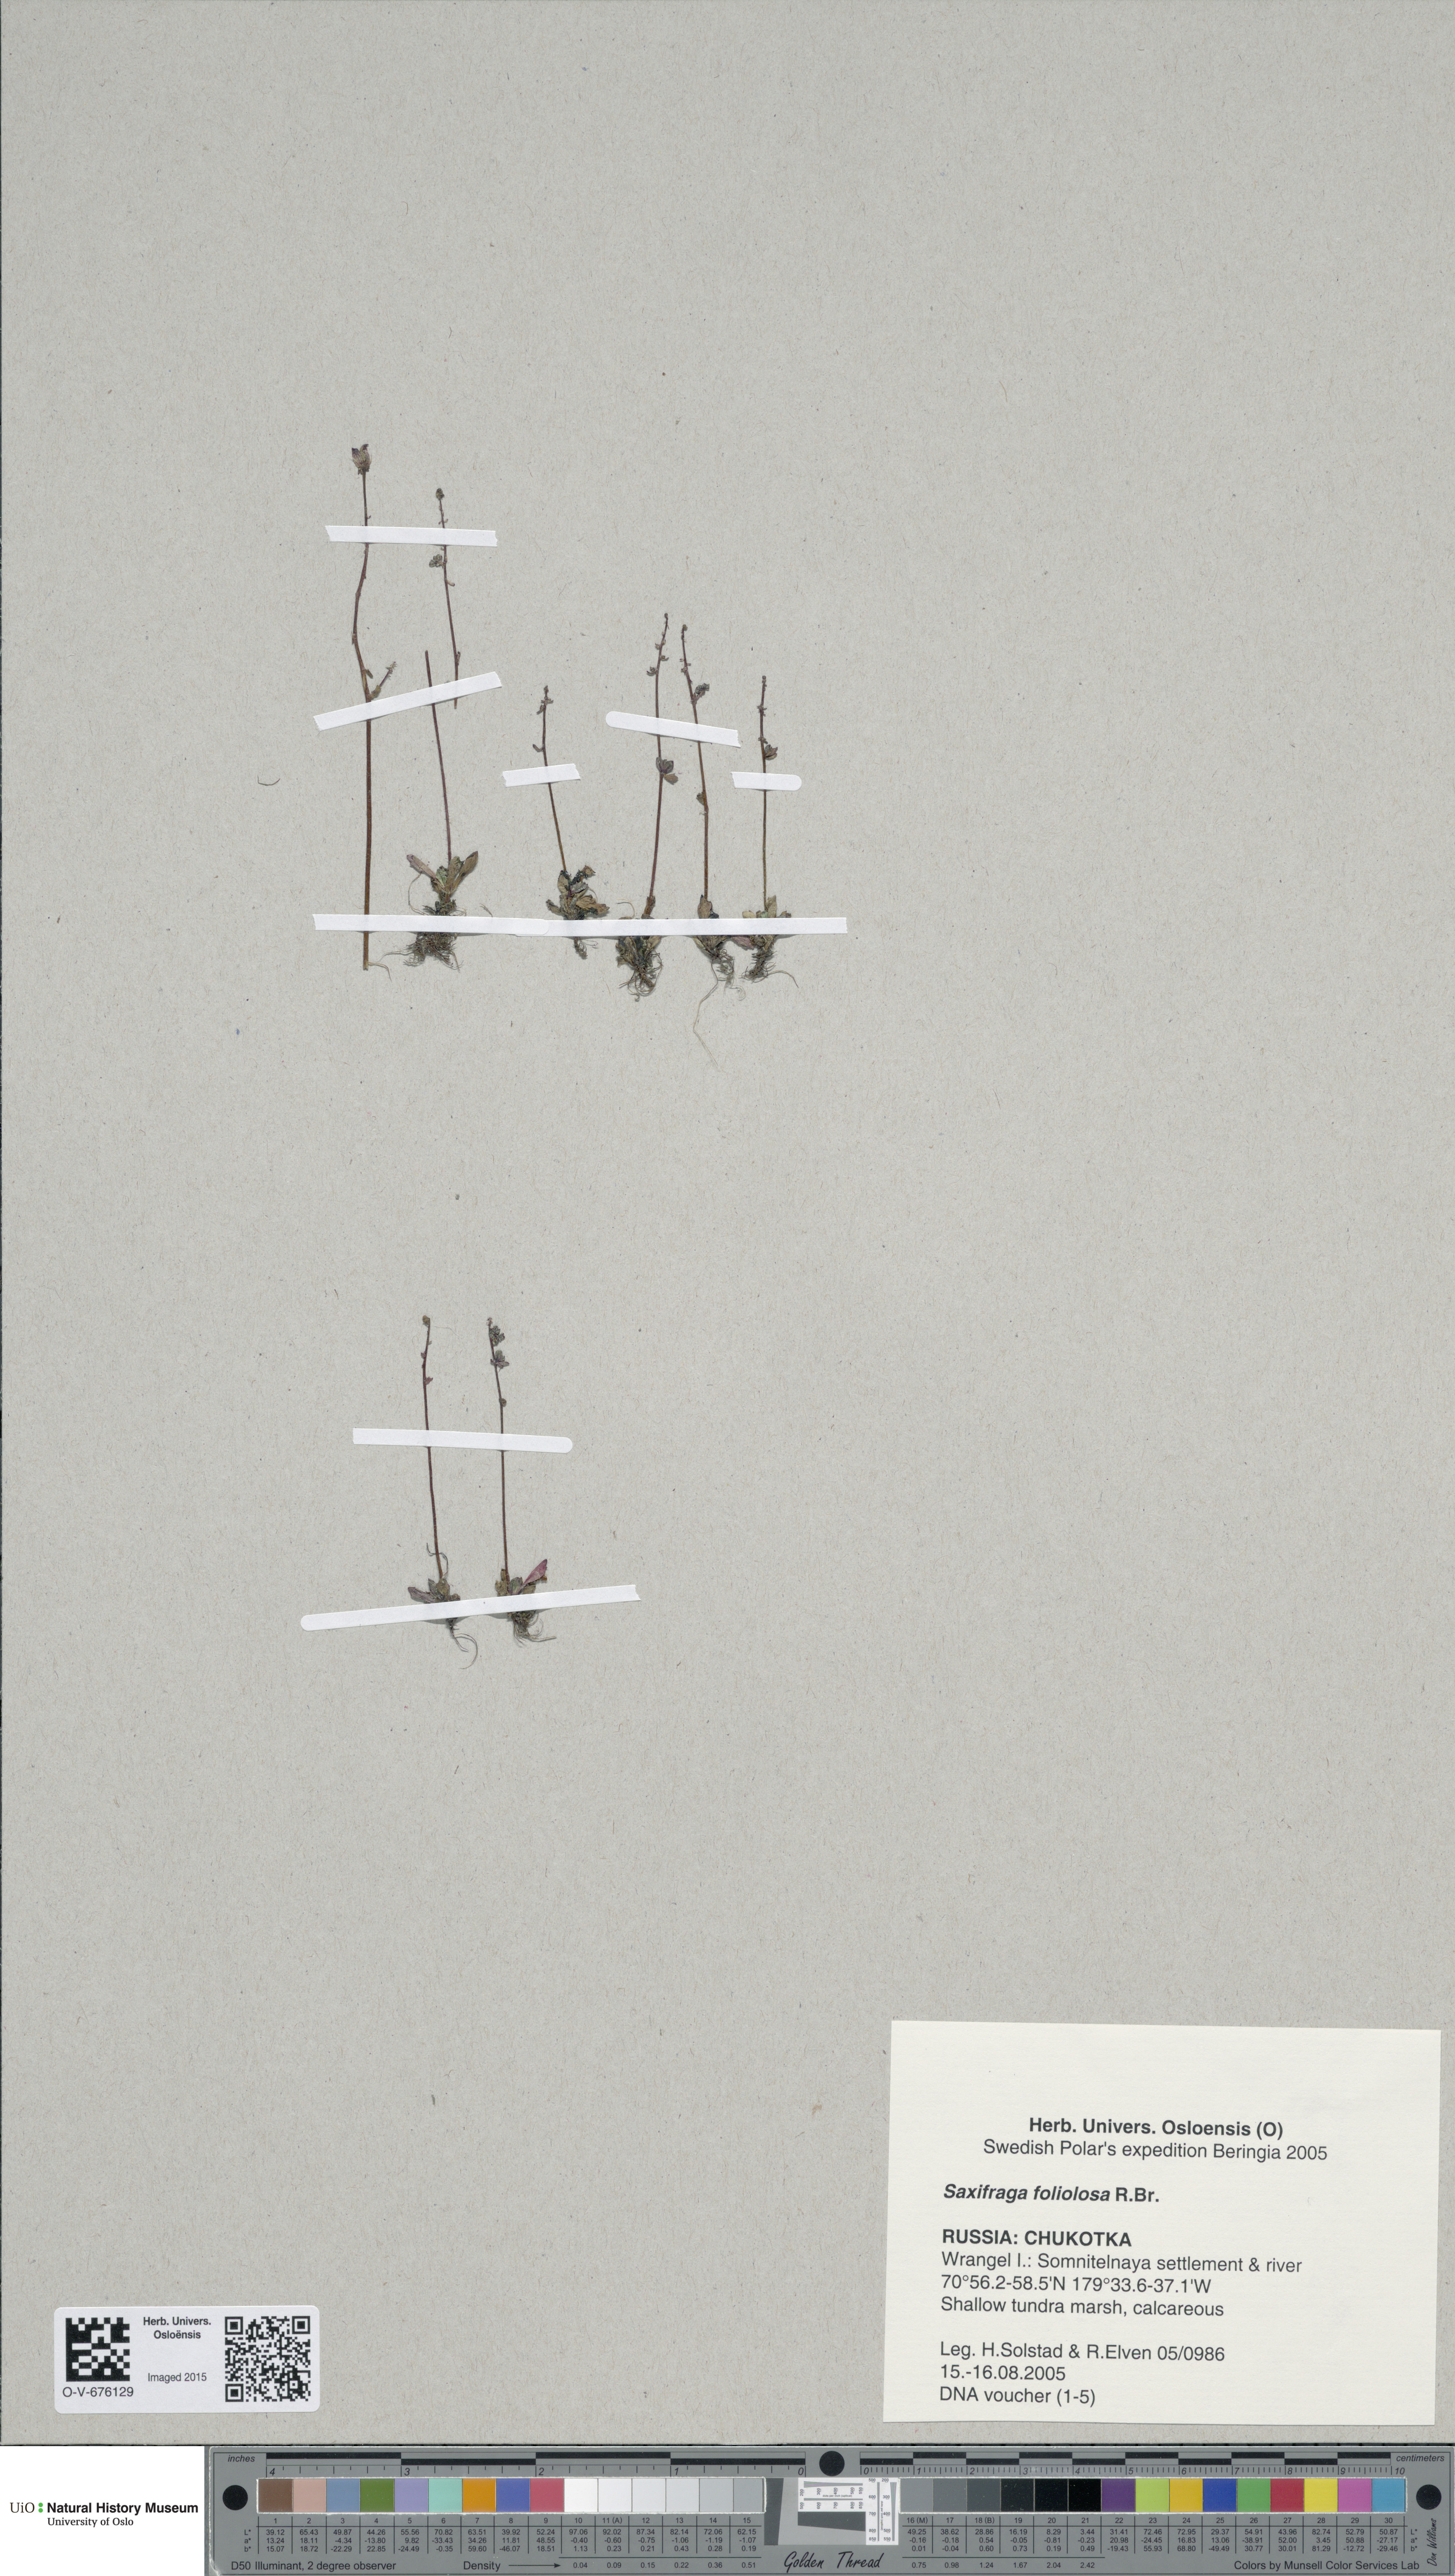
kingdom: Plantae
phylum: Tracheophyta
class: Magnoliopsida
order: Saxifragales
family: Saxifragaceae
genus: Micranthes
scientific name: Micranthes foliolosa
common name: Leafystem saxifrage
